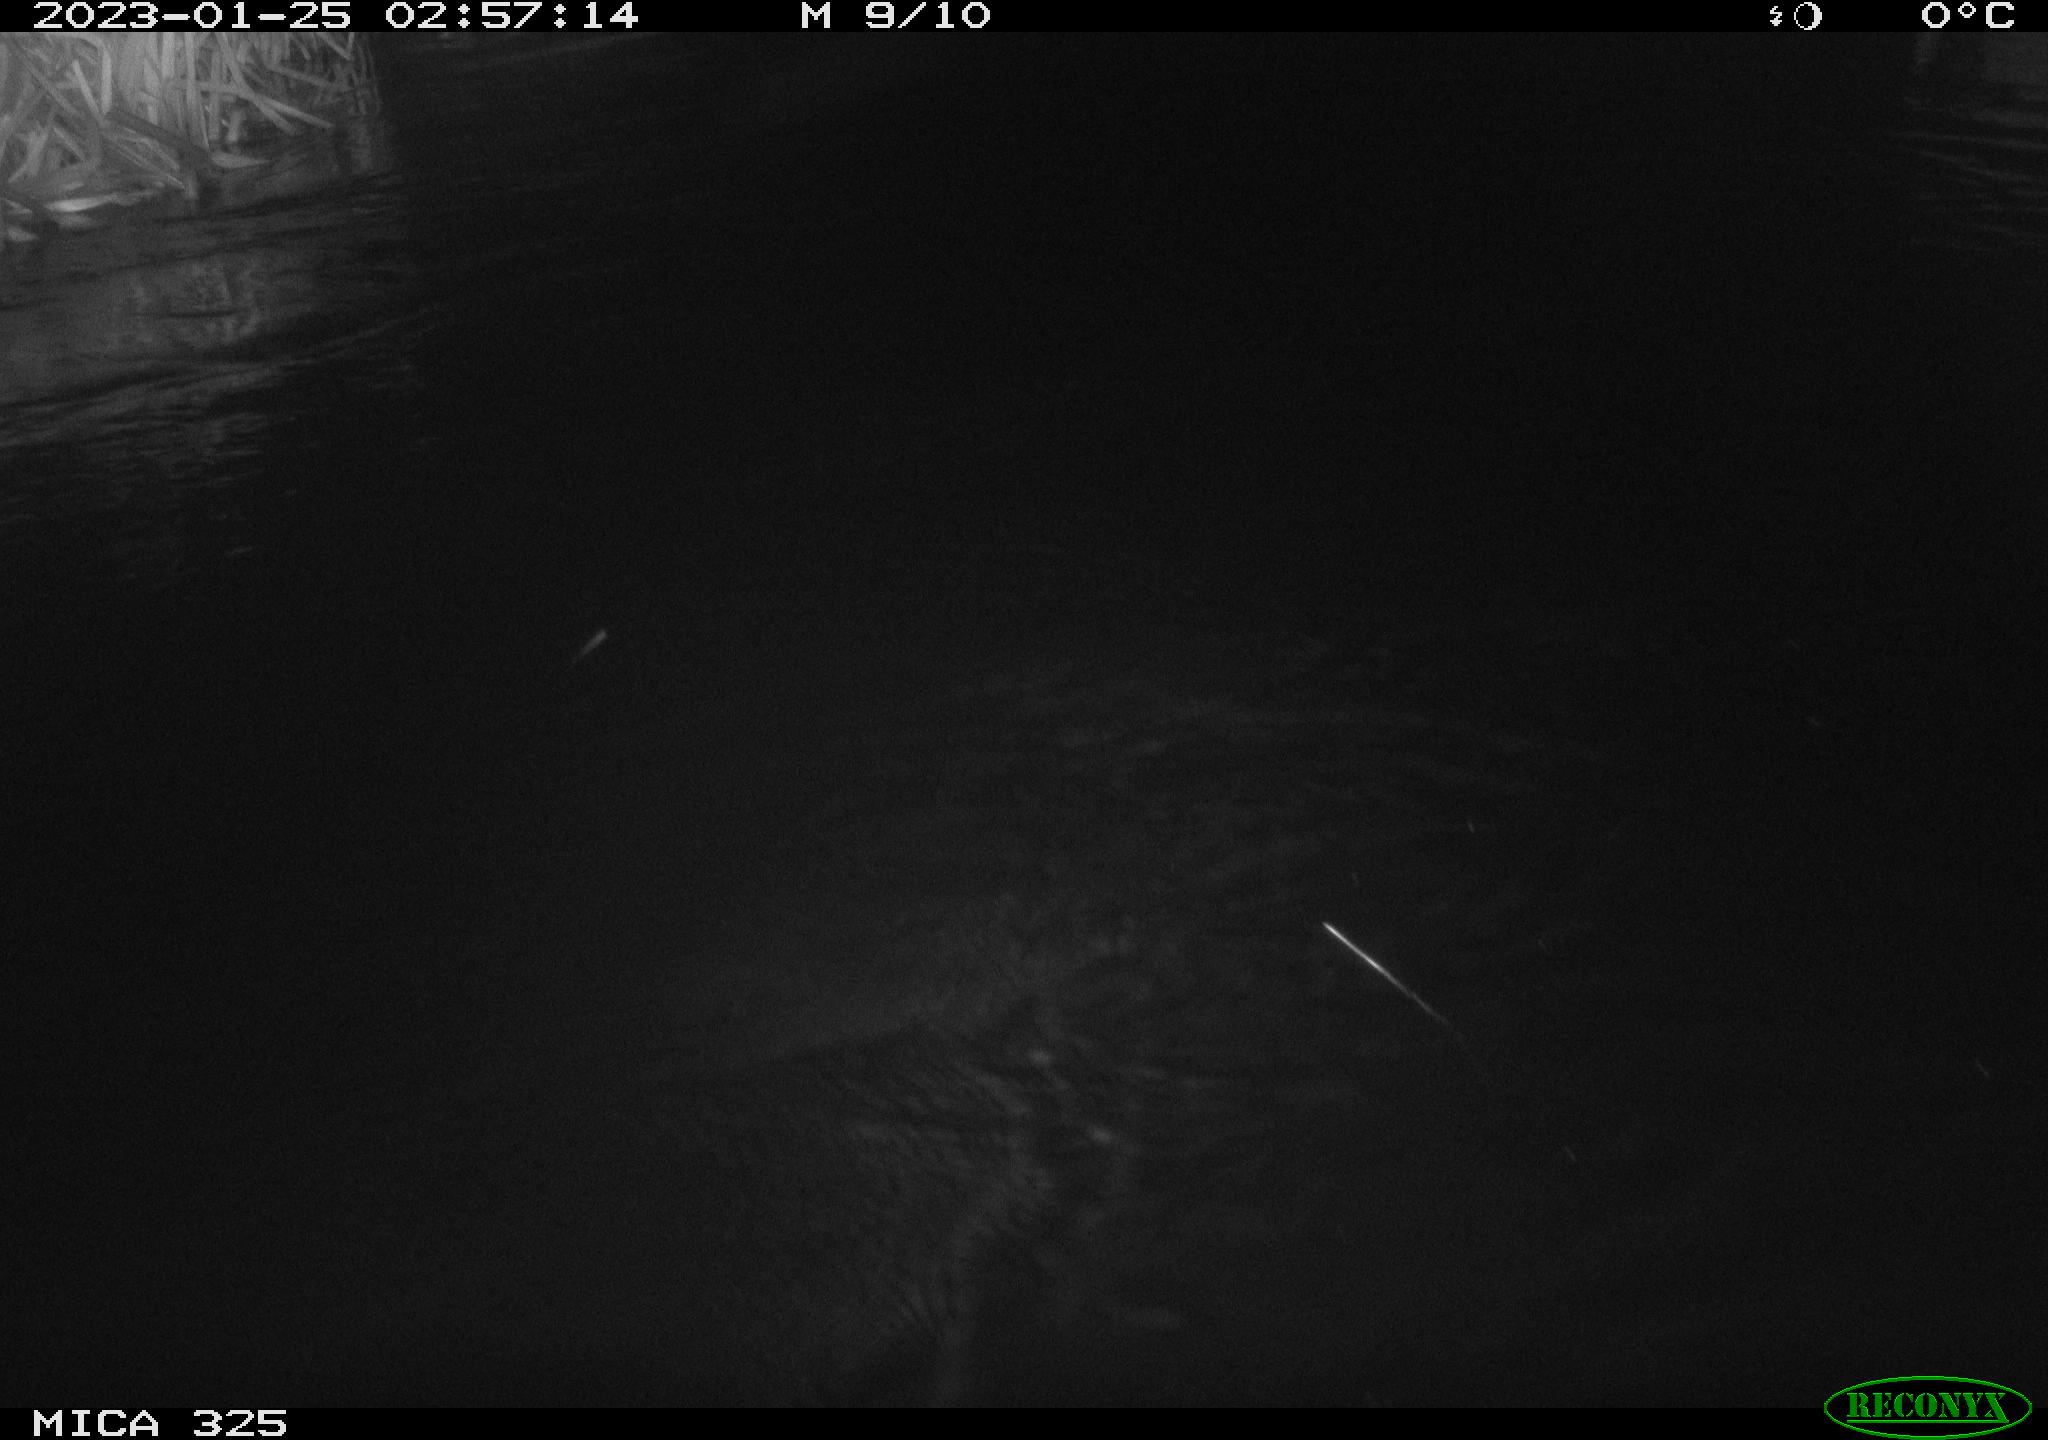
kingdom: Animalia
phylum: Chordata
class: Mammalia
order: Rodentia
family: Myocastoridae
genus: Myocastor
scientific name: Myocastor coypus
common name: Coypu
